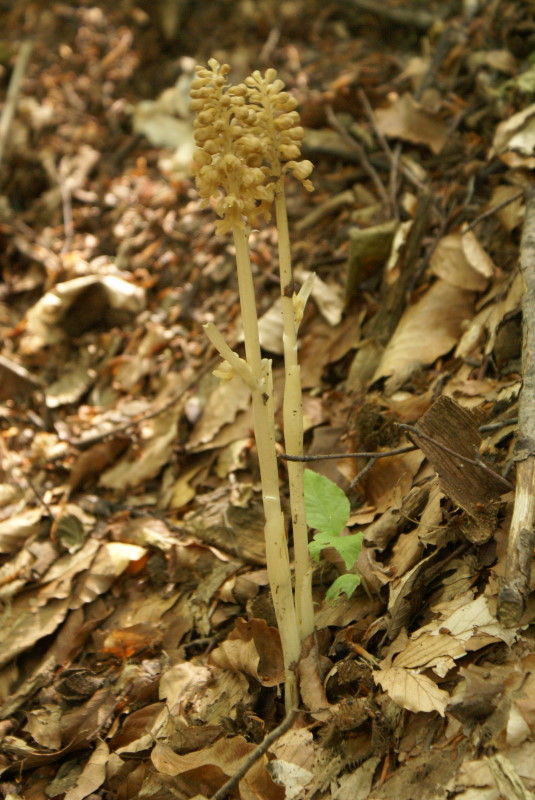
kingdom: Plantae
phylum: Tracheophyta
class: Liliopsida
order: Asparagales
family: Orchidaceae
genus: Neottia
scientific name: Neottia nidus-avis
